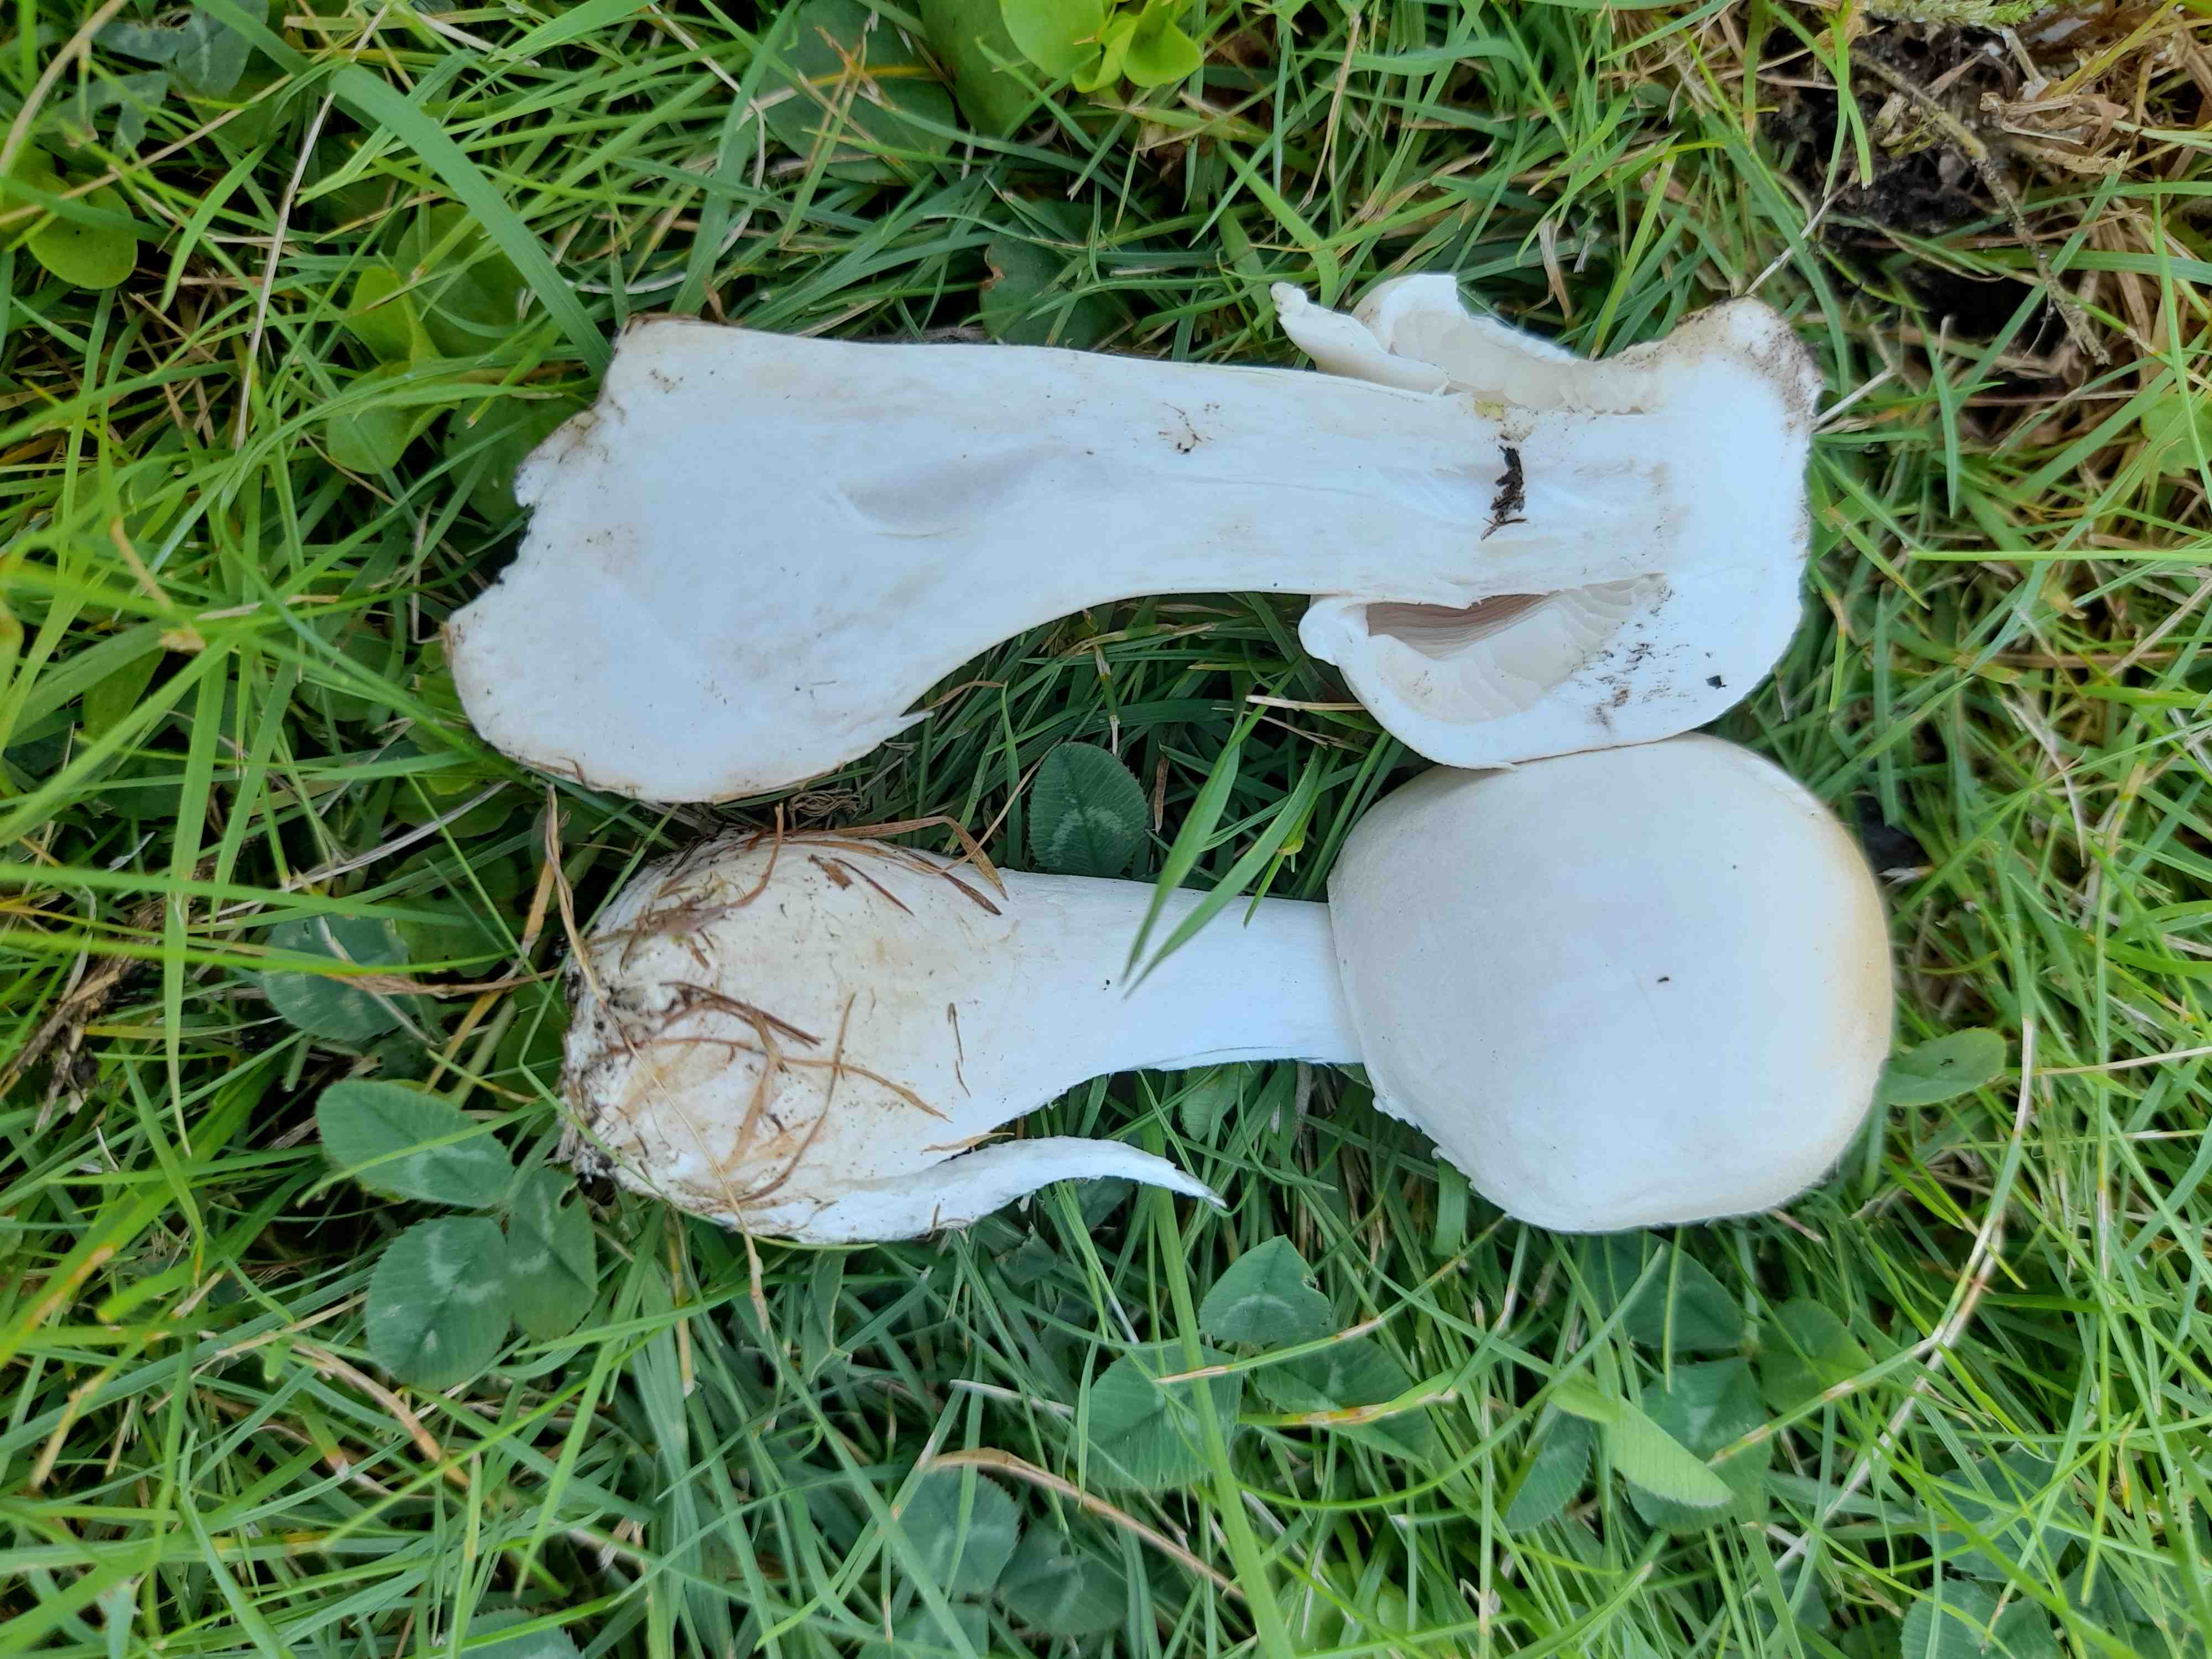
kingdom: Fungi
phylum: Basidiomycota
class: Agaricomycetes
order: Agaricales
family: Agaricaceae
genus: Leucoagaricus
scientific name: Leucoagaricus leucothites
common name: rosabladet silkehat
